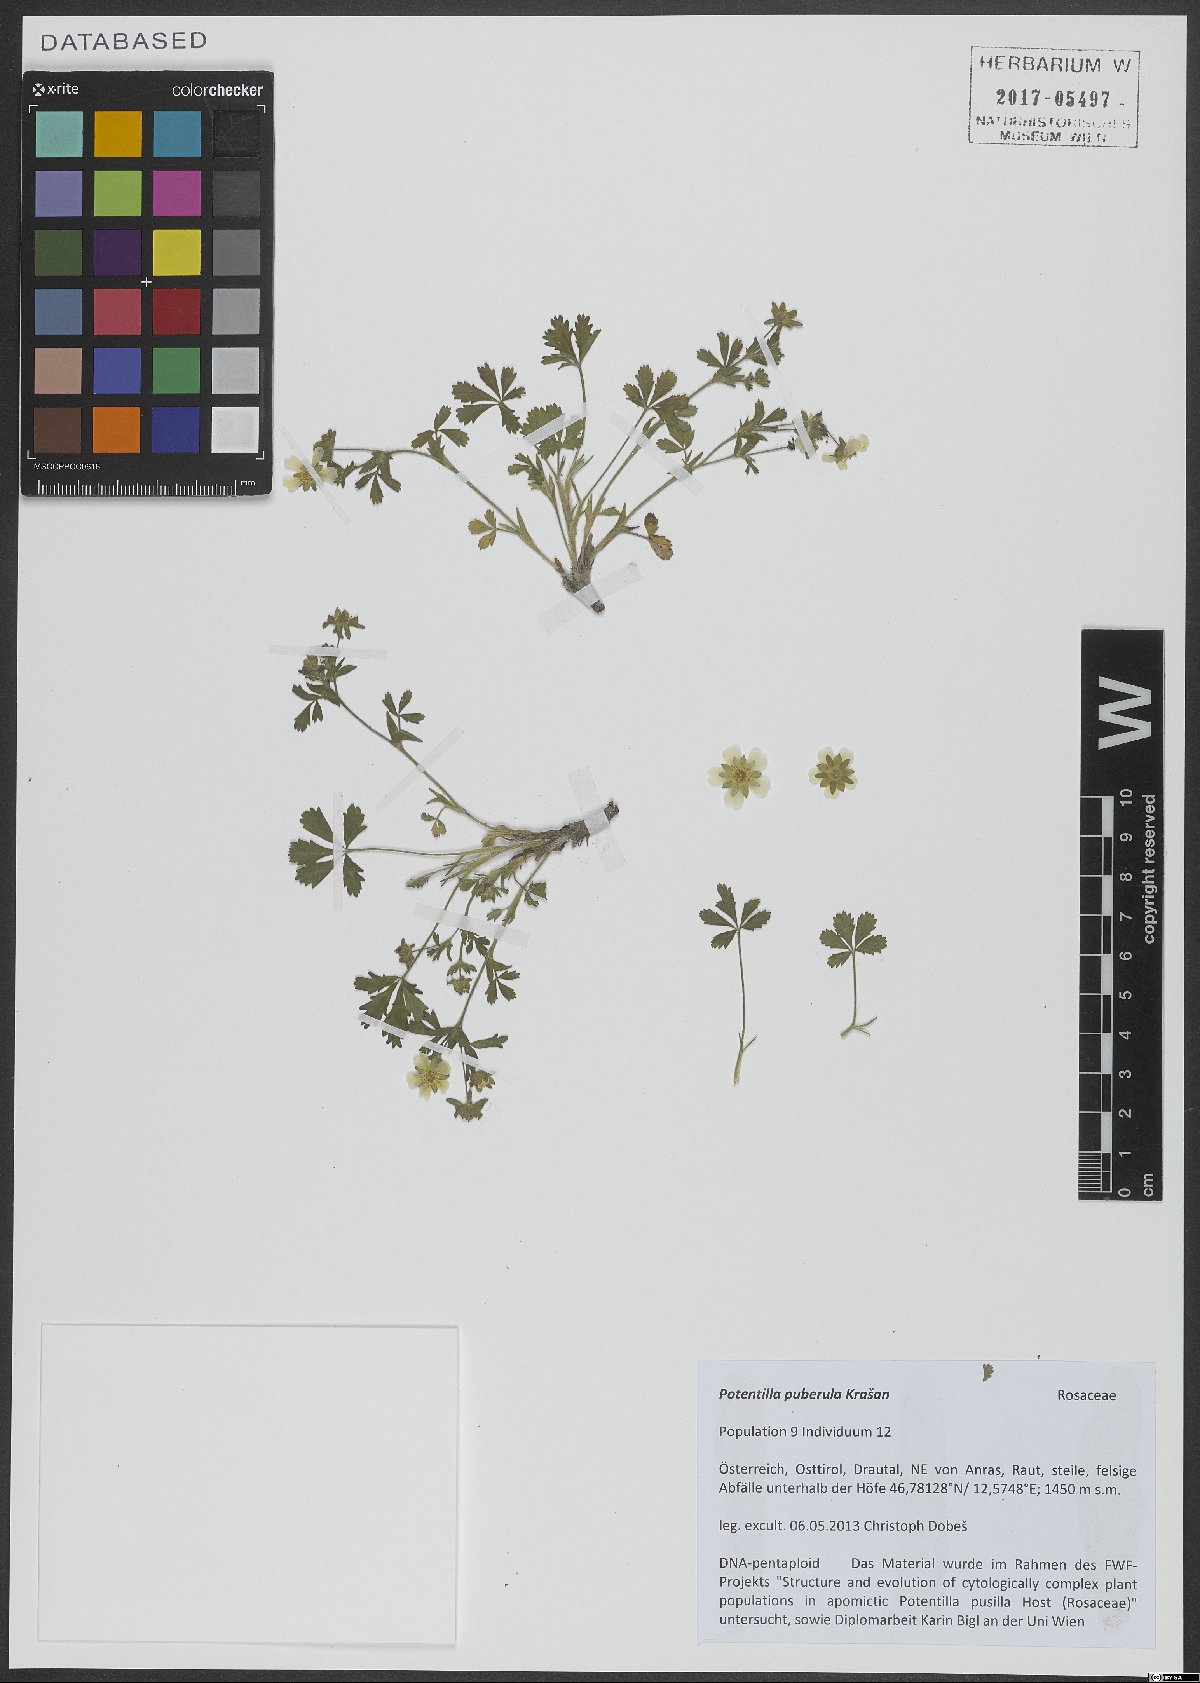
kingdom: Plantae
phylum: Tracheophyta
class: Magnoliopsida
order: Rosales
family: Rosaceae
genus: Potentilla
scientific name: Potentilla pusilla
